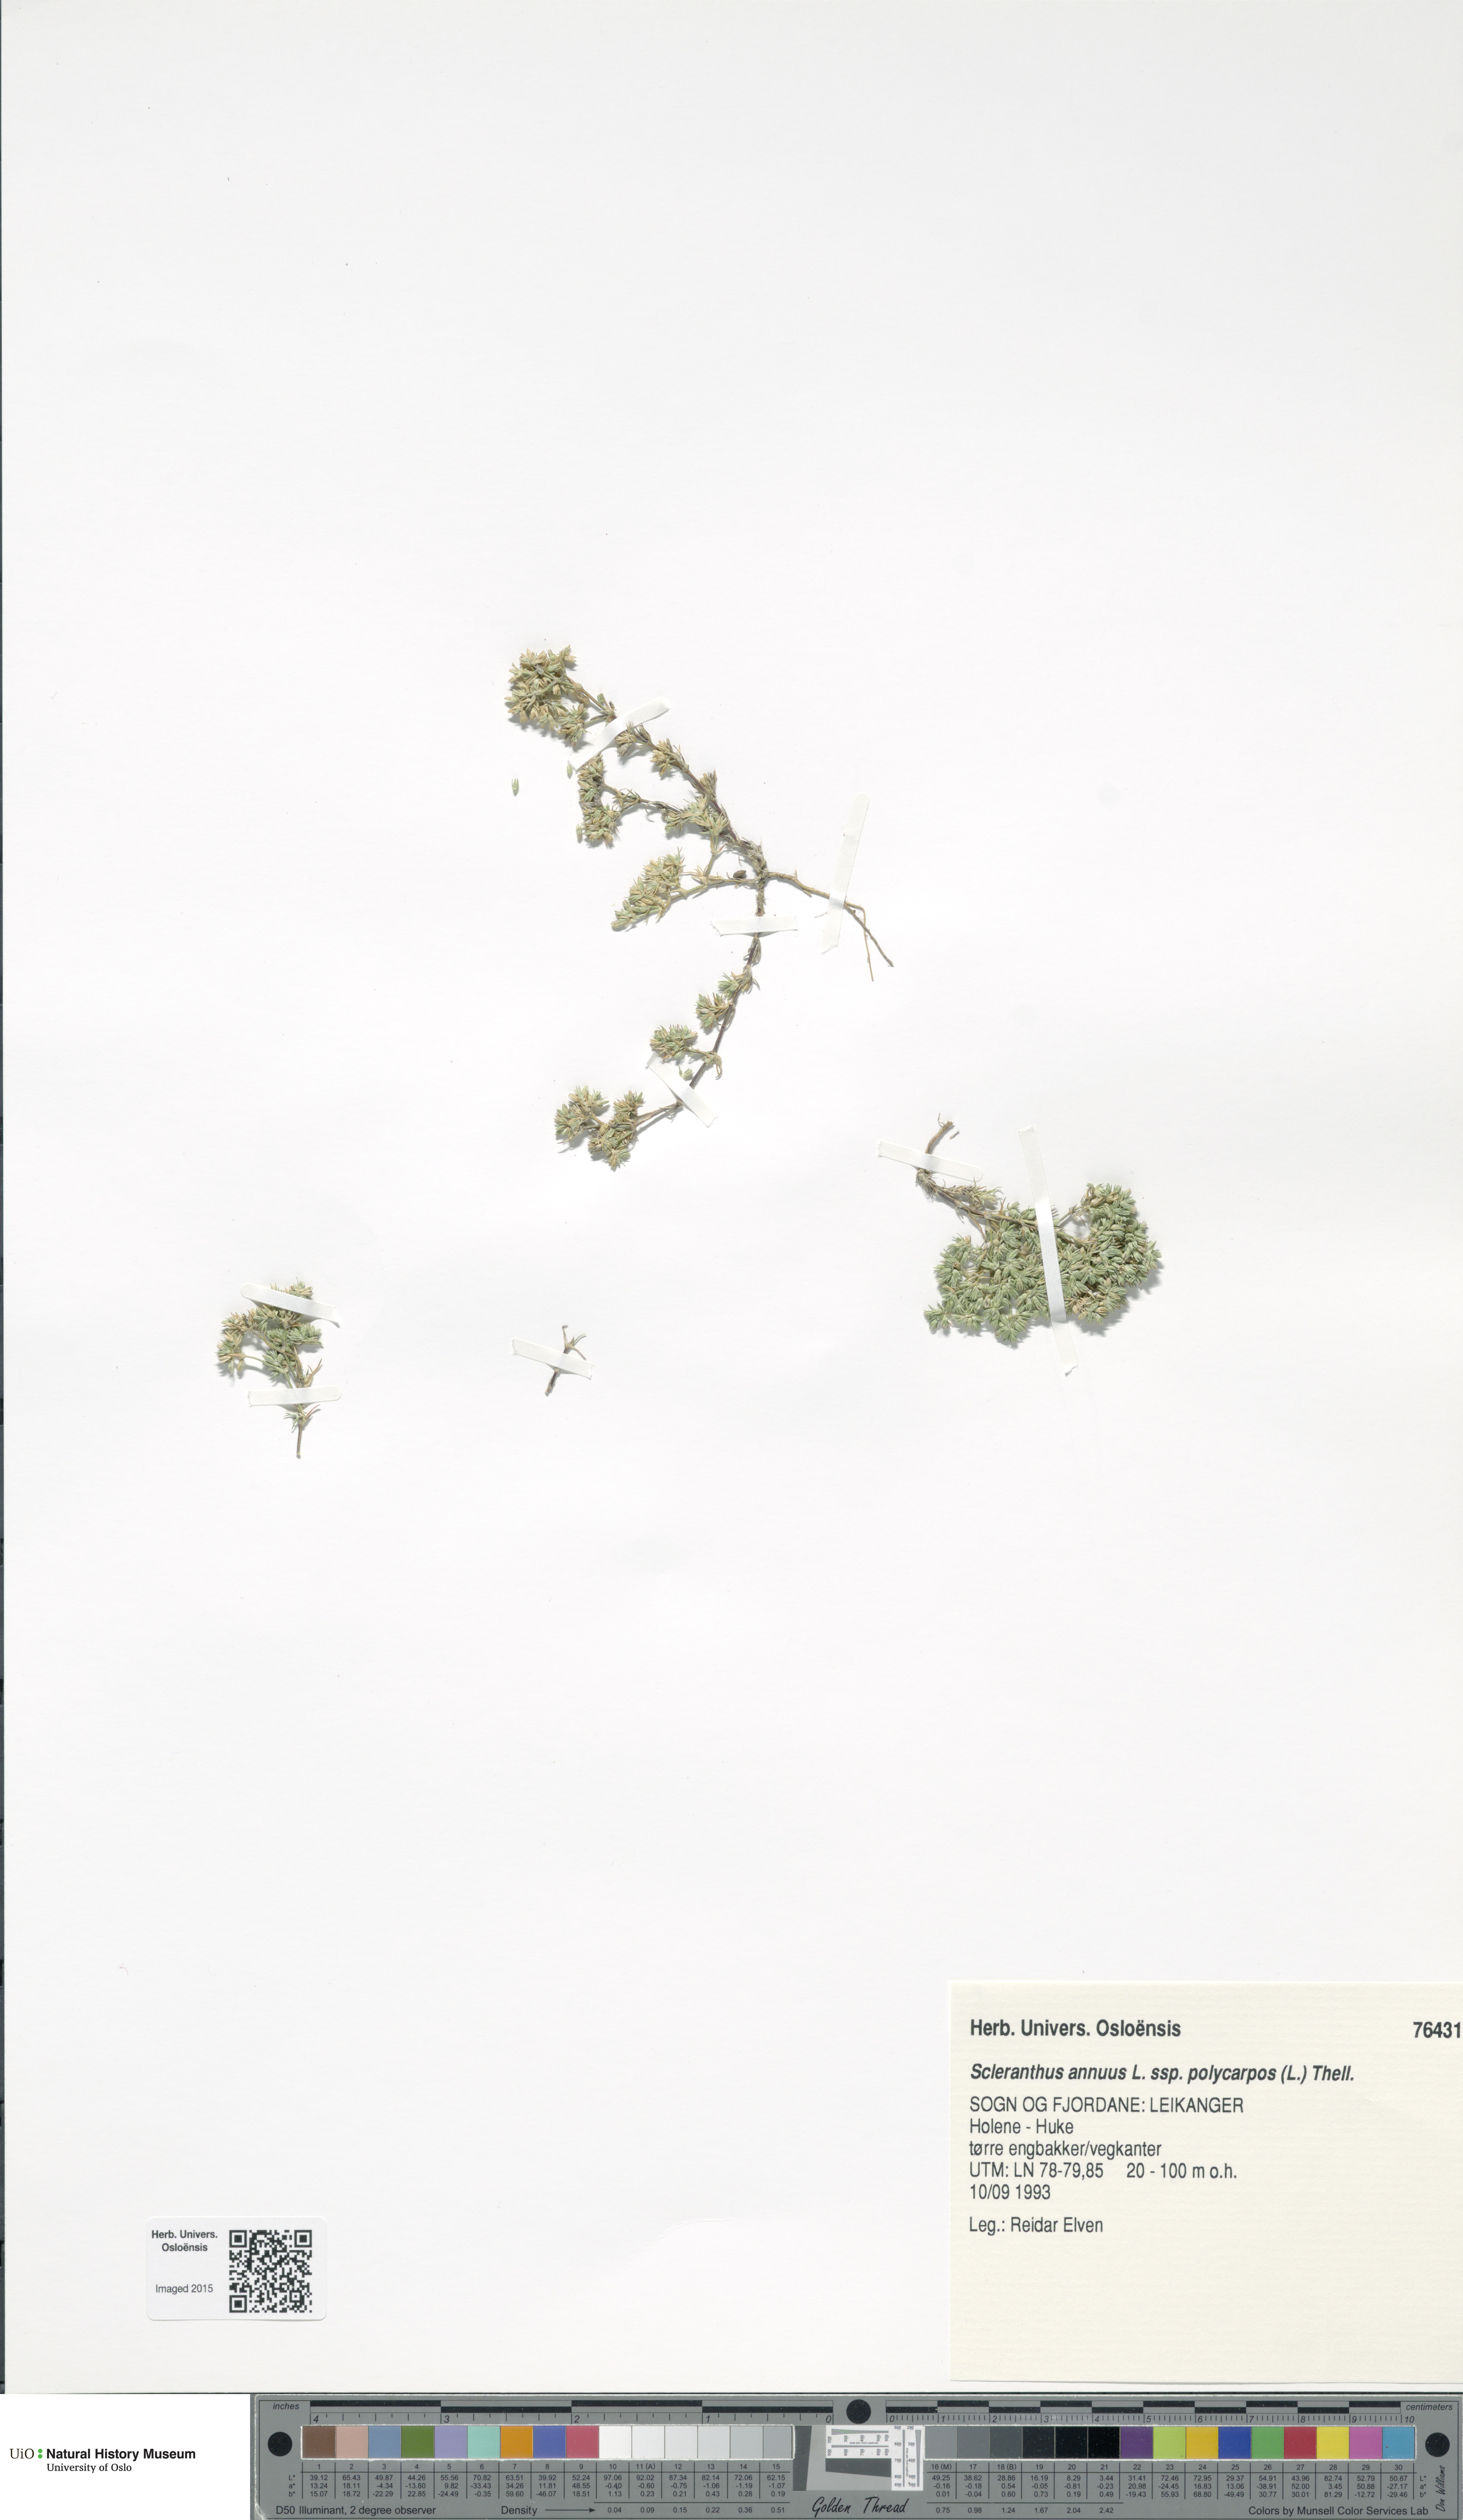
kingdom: Plantae
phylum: Tracheophyta
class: Magnoliopsida
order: Caryophyllales
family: Caryophyllaceae
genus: Scleranthus
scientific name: Scleranthus annuus
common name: Annual knawel
